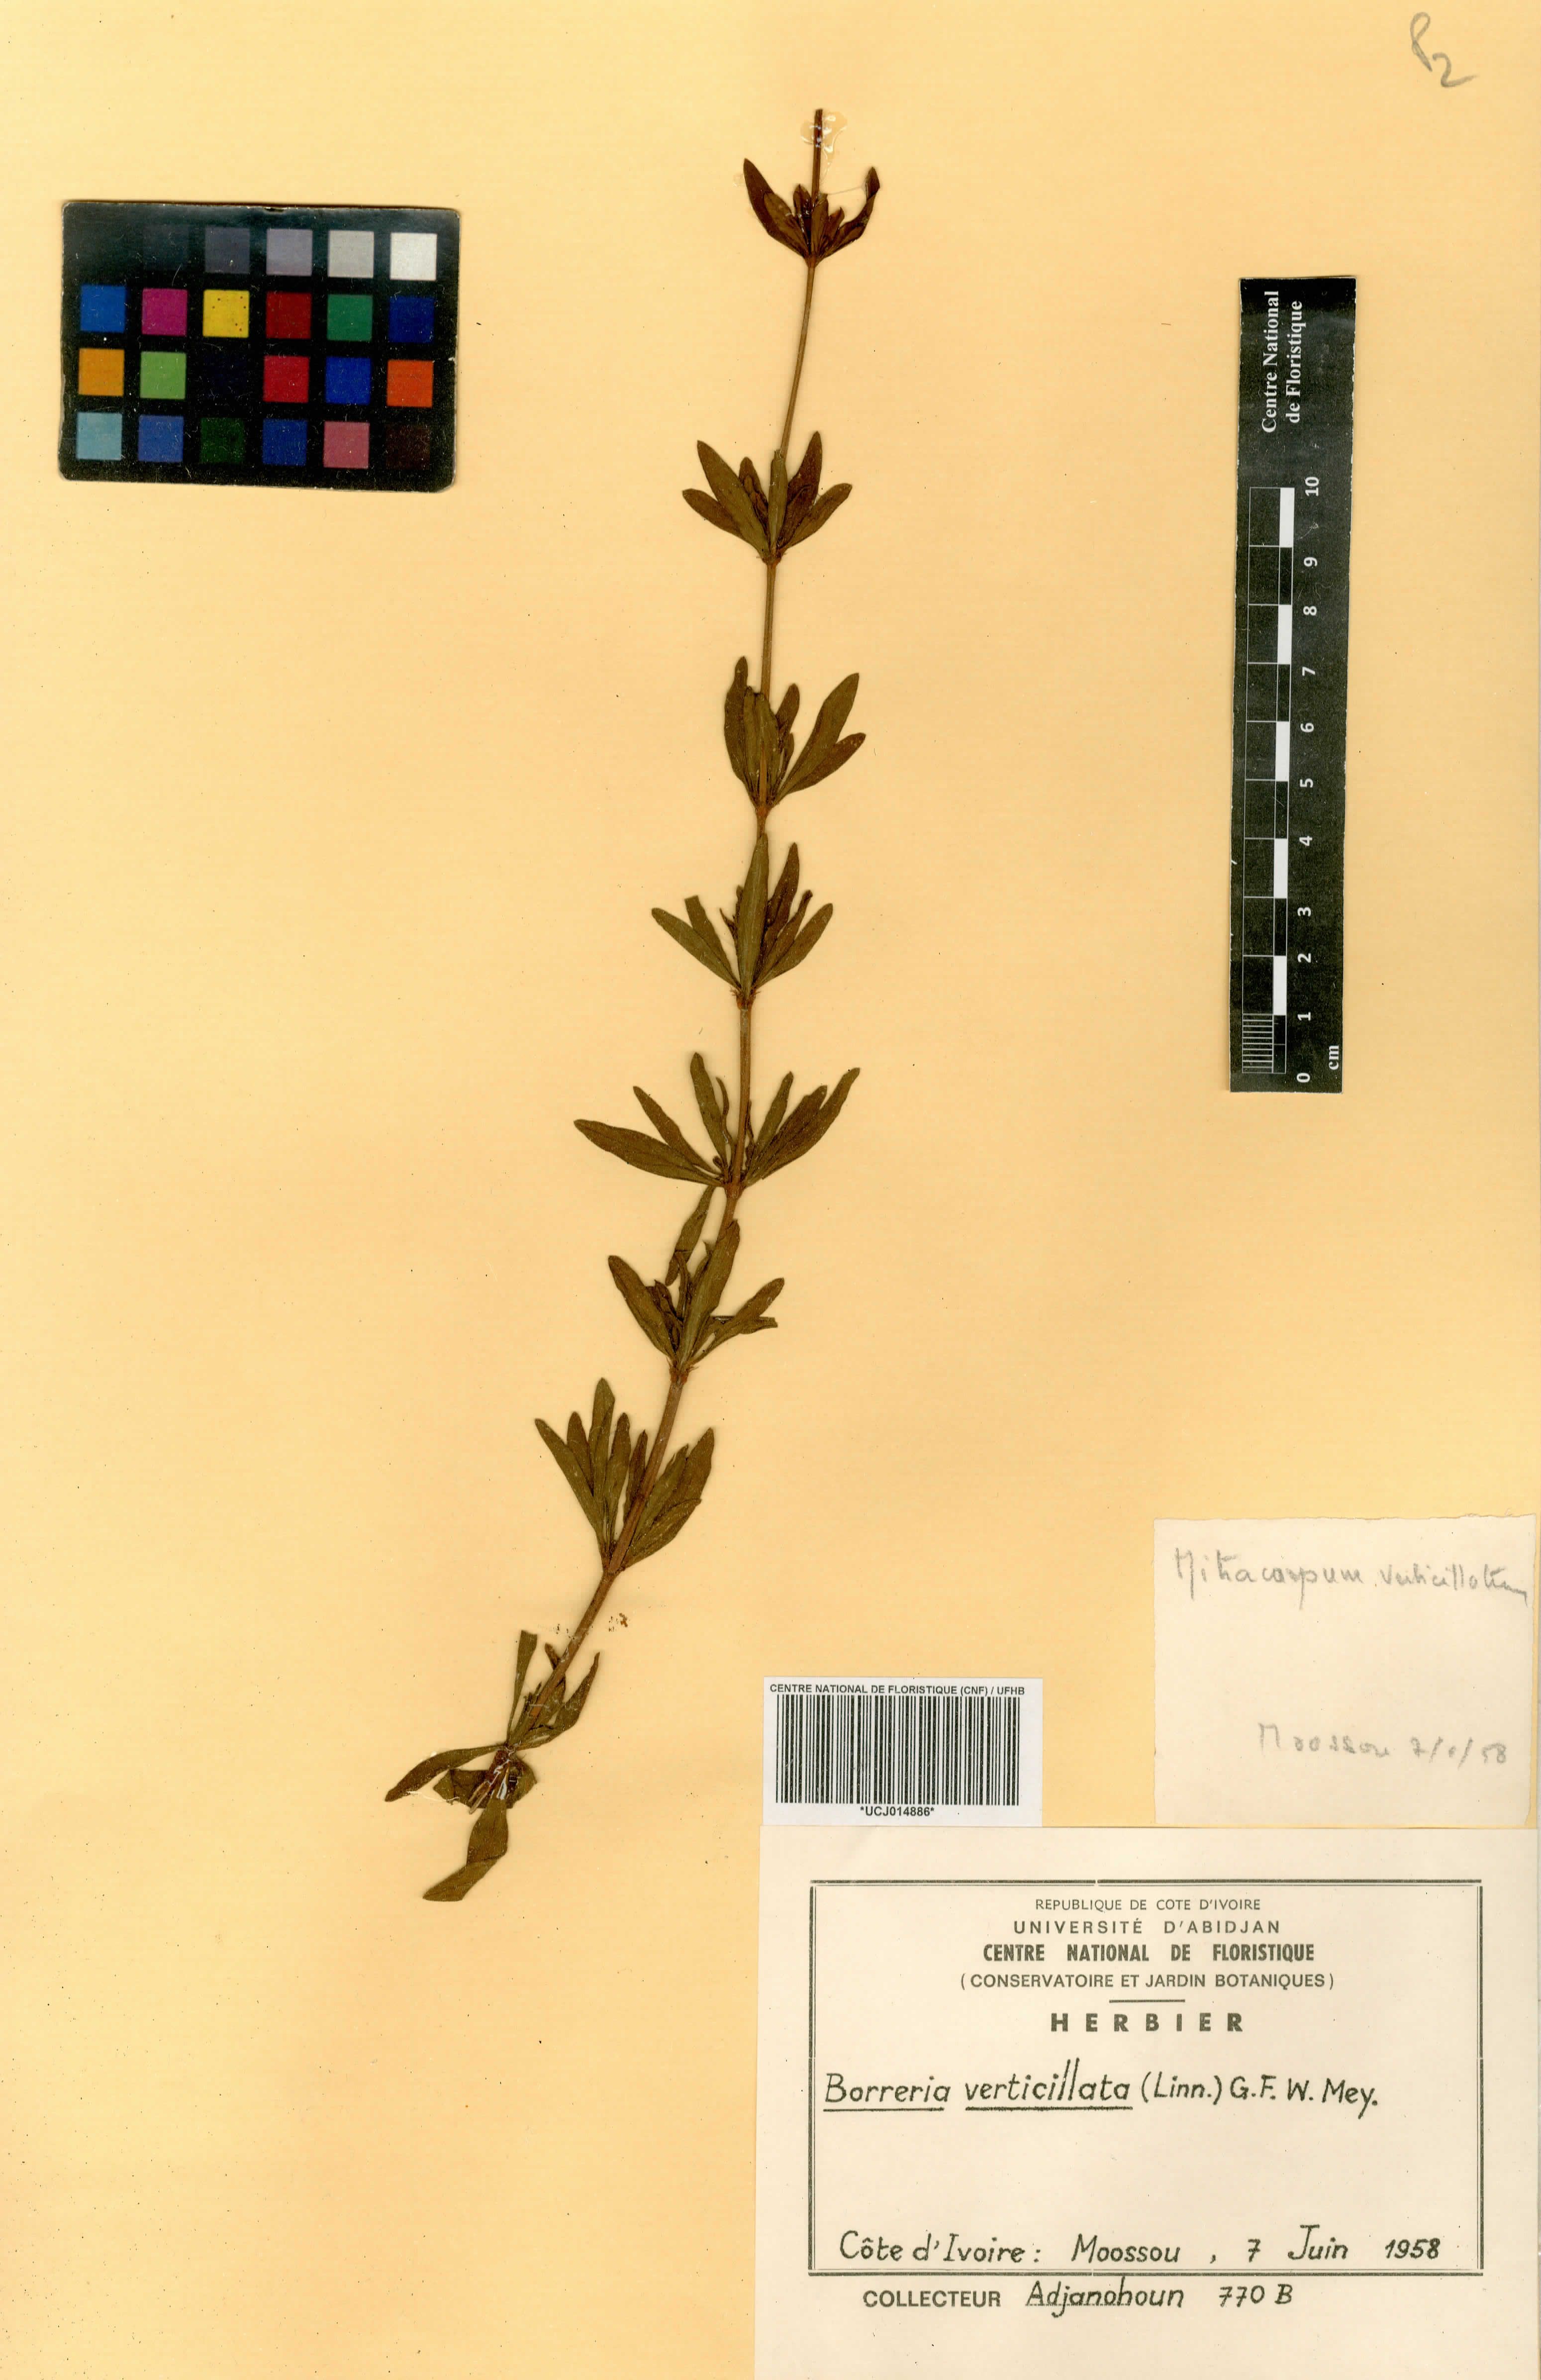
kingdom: Plantae
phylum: Tracheophyta
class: Magnoliopsida
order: Gentianales
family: Rubiaceae
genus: Spermacoce
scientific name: Spermacoce verticillata
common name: Shrubby false buttonweed
